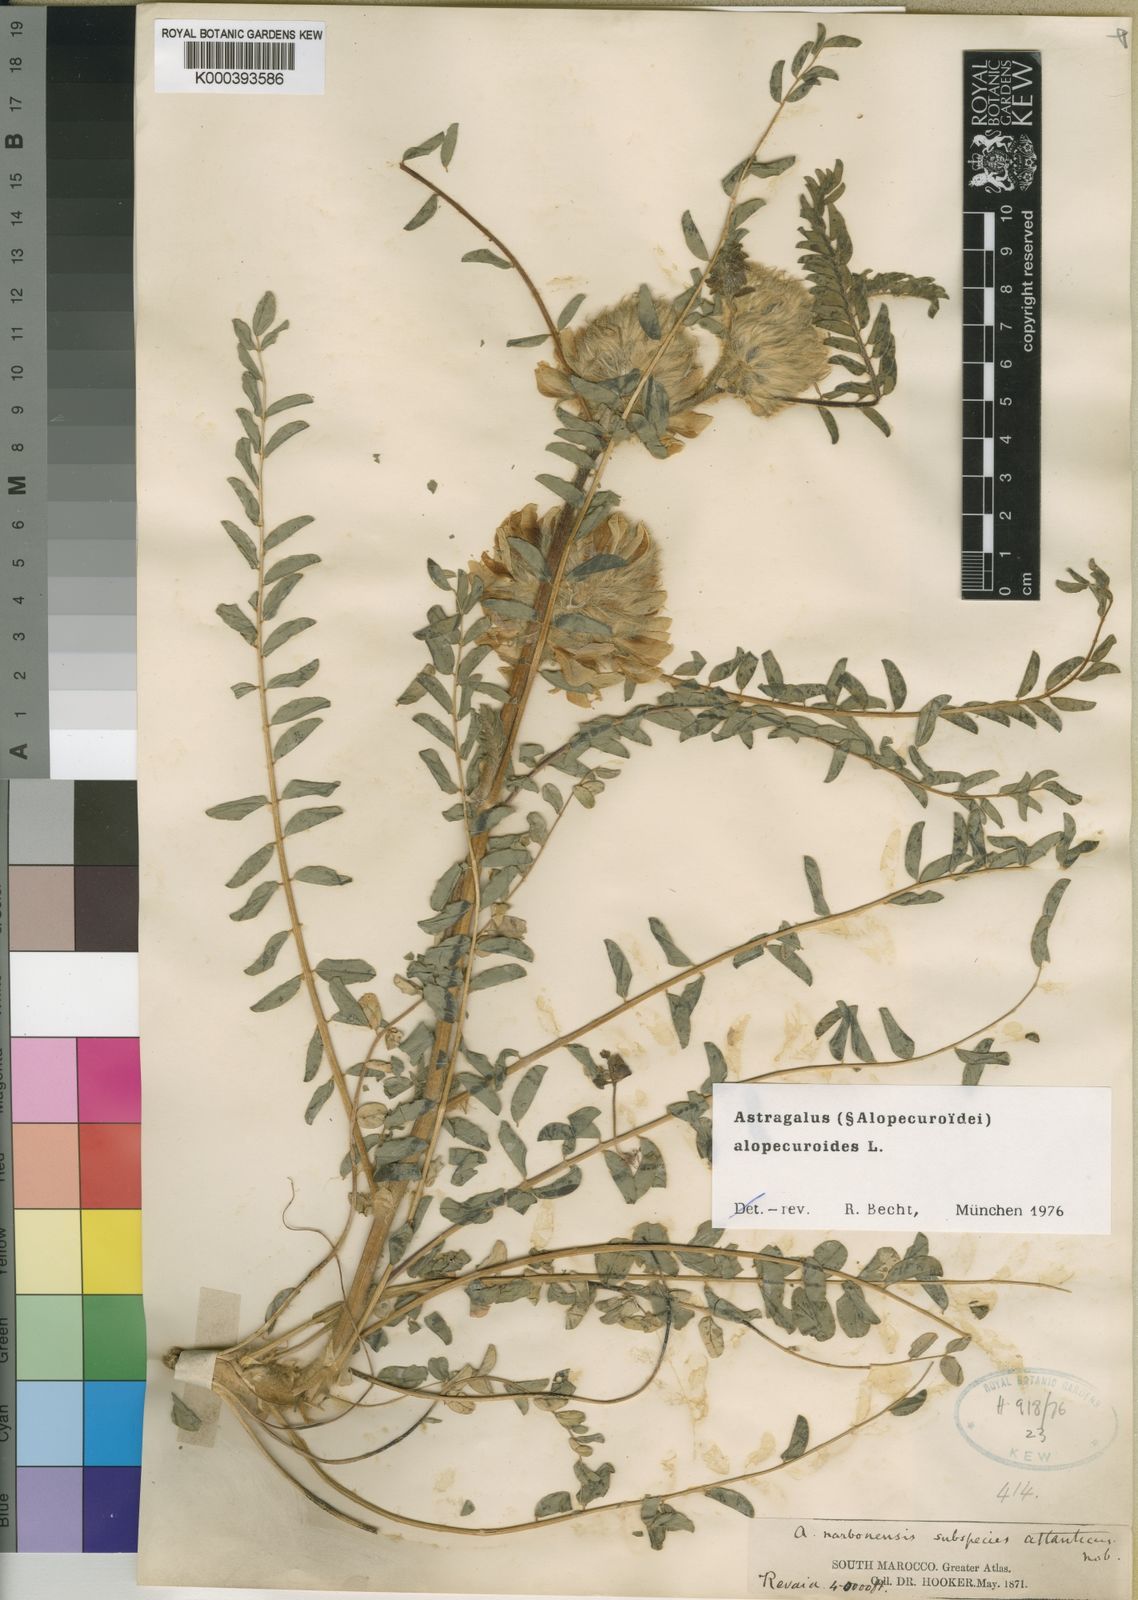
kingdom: Plantae
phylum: Tracheophyta
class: Magnoliopsida
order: Fabales
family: Fabaceae
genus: Astragalus
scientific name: Astragalus alopecuroides
